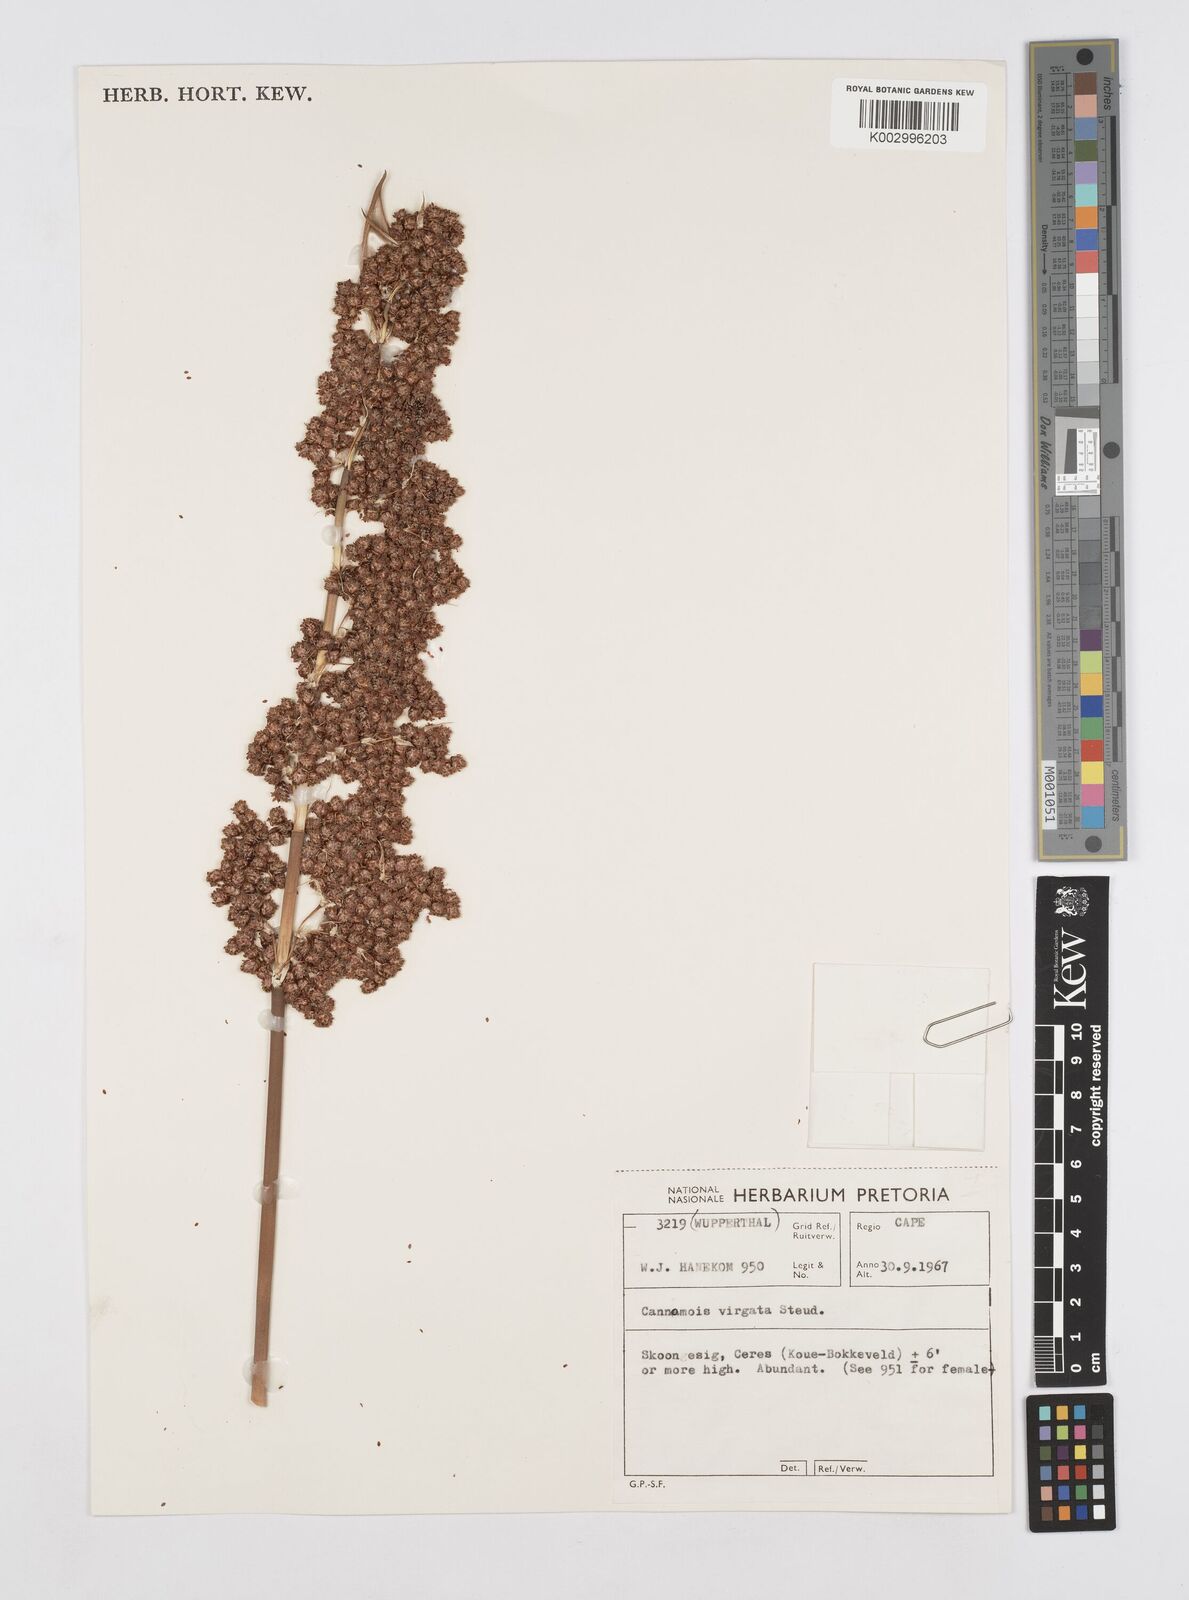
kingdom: Plantae
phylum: Tracheophyta
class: Liliopsida
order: Poales
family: Restionaceae
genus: Cannomois
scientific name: Cannomois virgata
